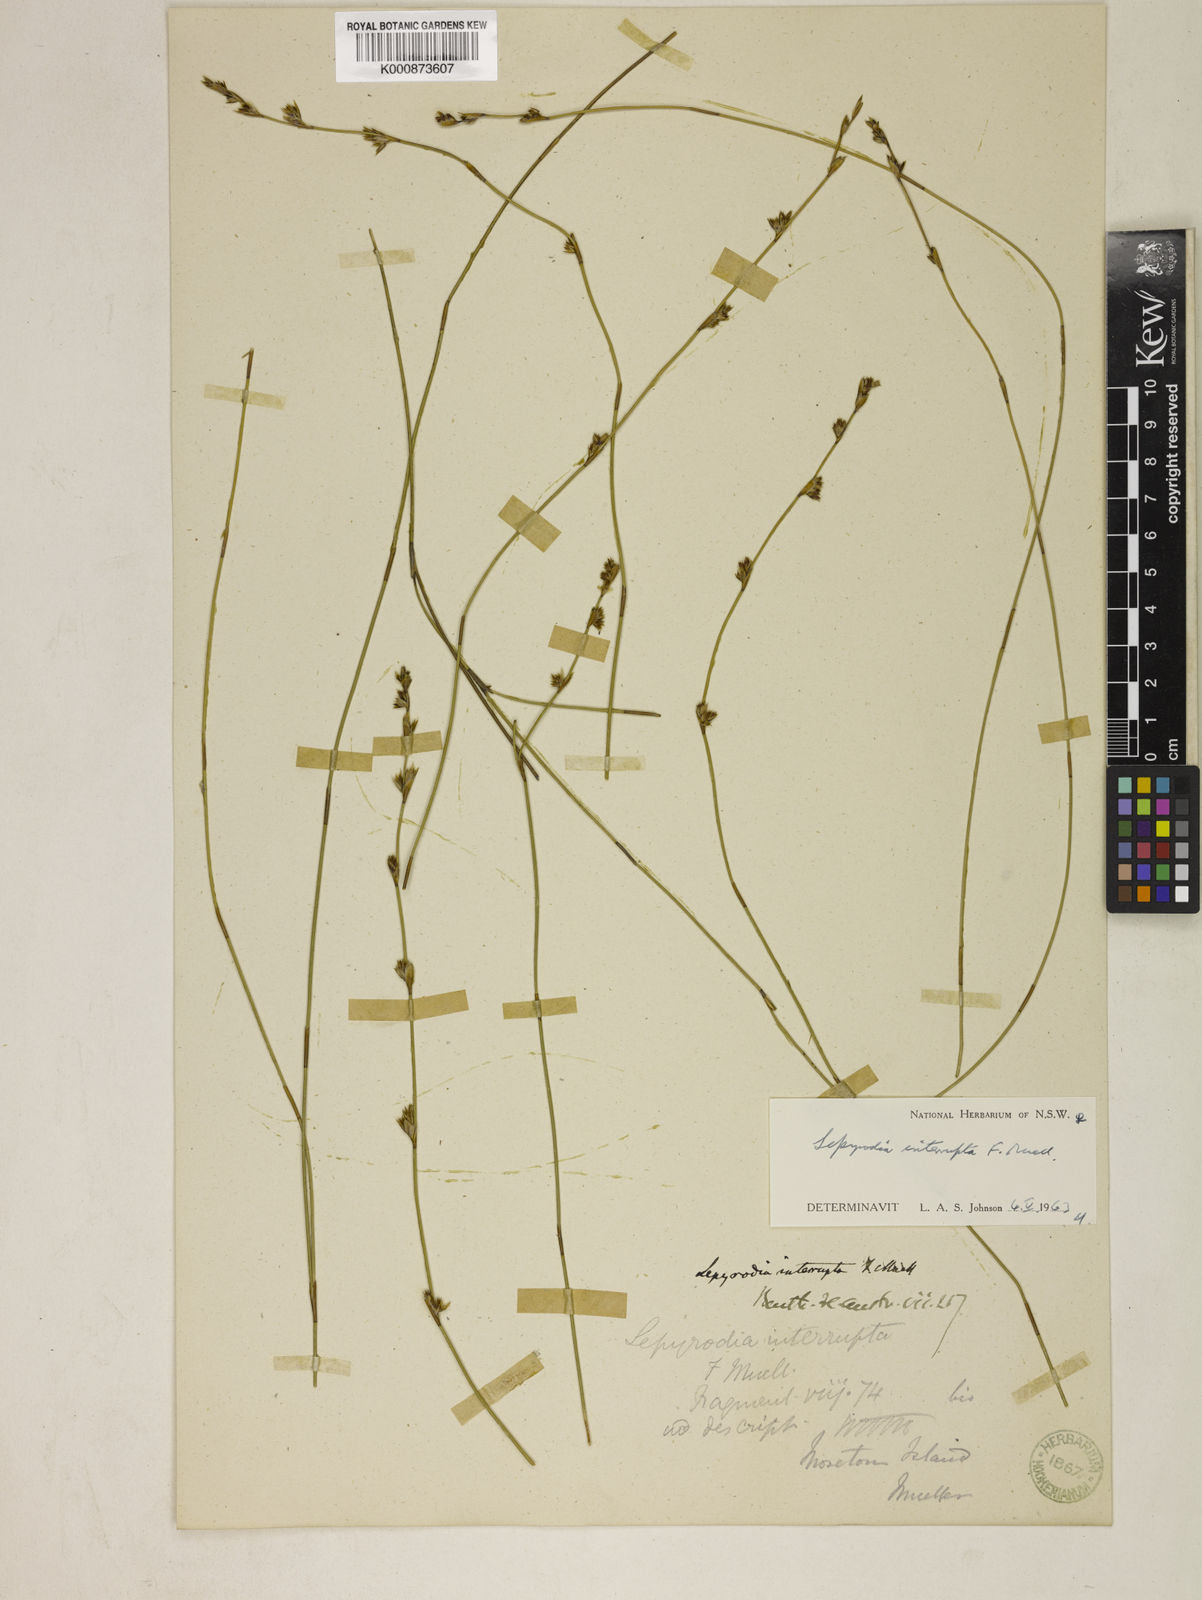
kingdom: Plantae
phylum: Tracheophyta
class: Liliopsida
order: Poales
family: Restionaceae
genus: Sporadanthus
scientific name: Sporadanthus interruptus
